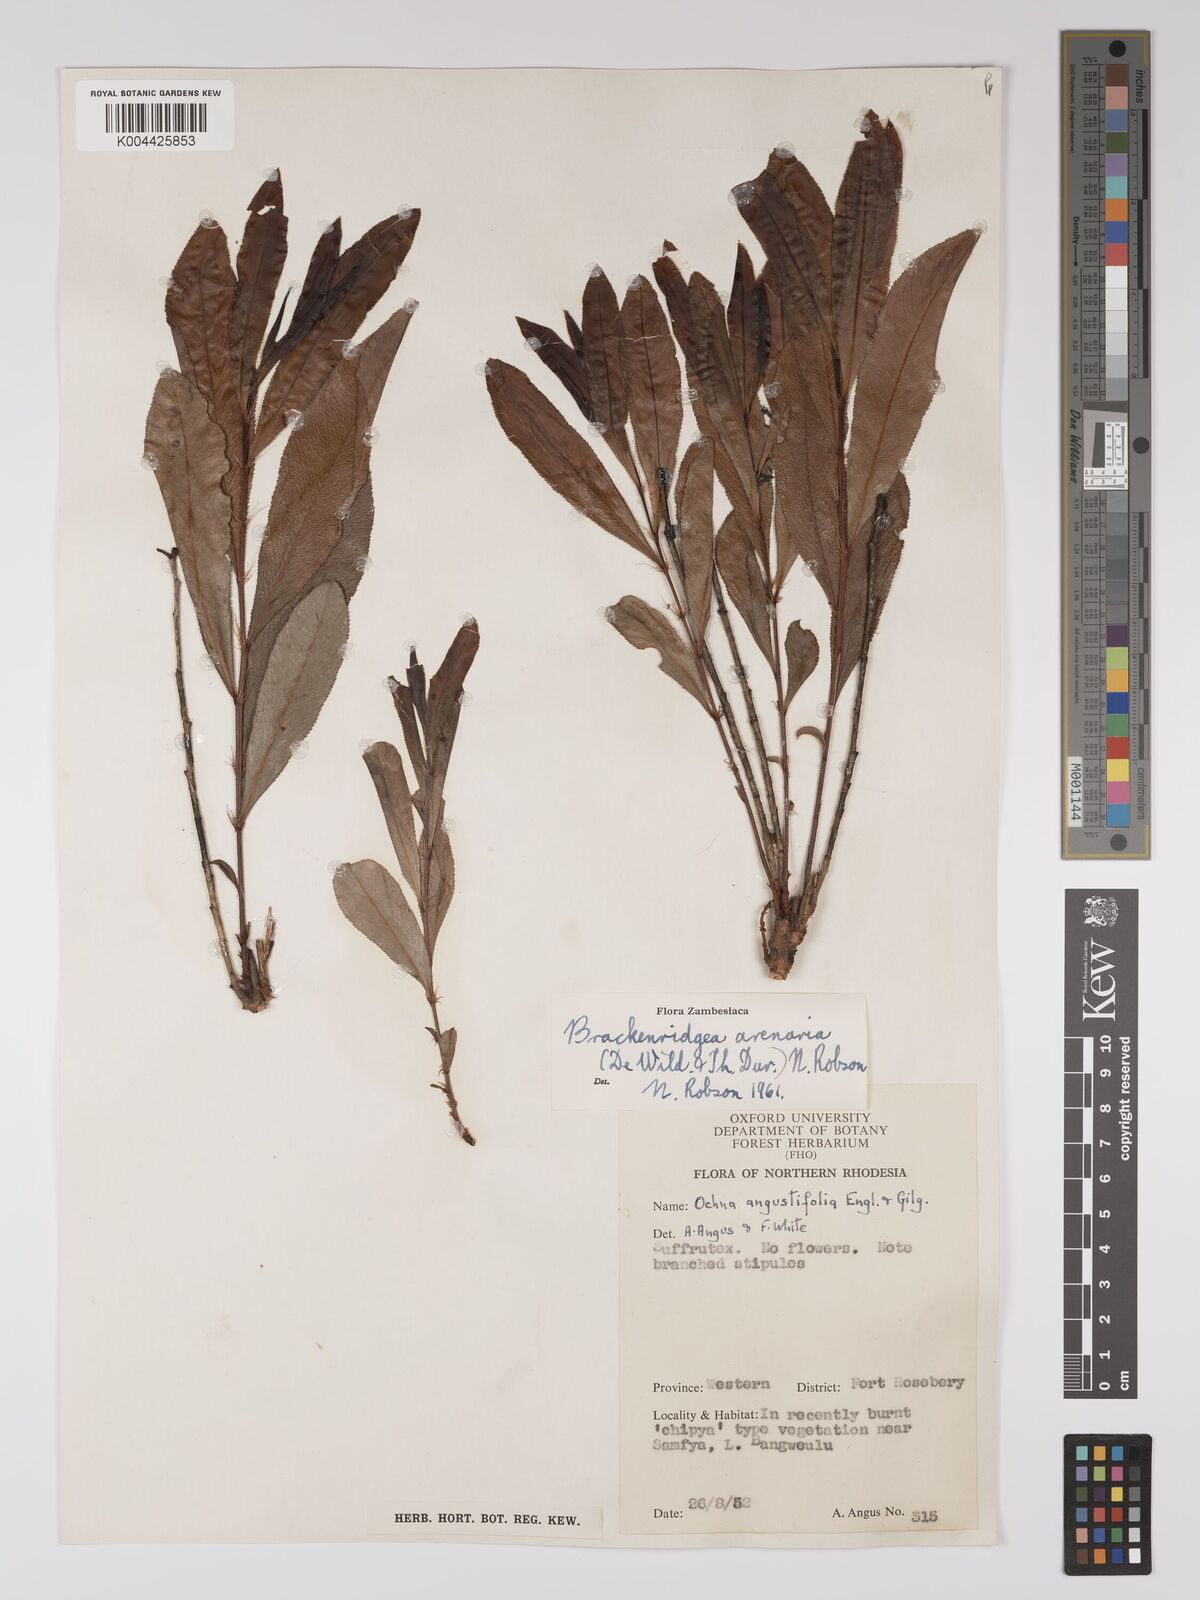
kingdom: Plantae
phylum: Tracheophyta
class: Magnoliopsida
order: Malpighiales
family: Ochnaceae
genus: Ochna
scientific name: Ochna arenaria
